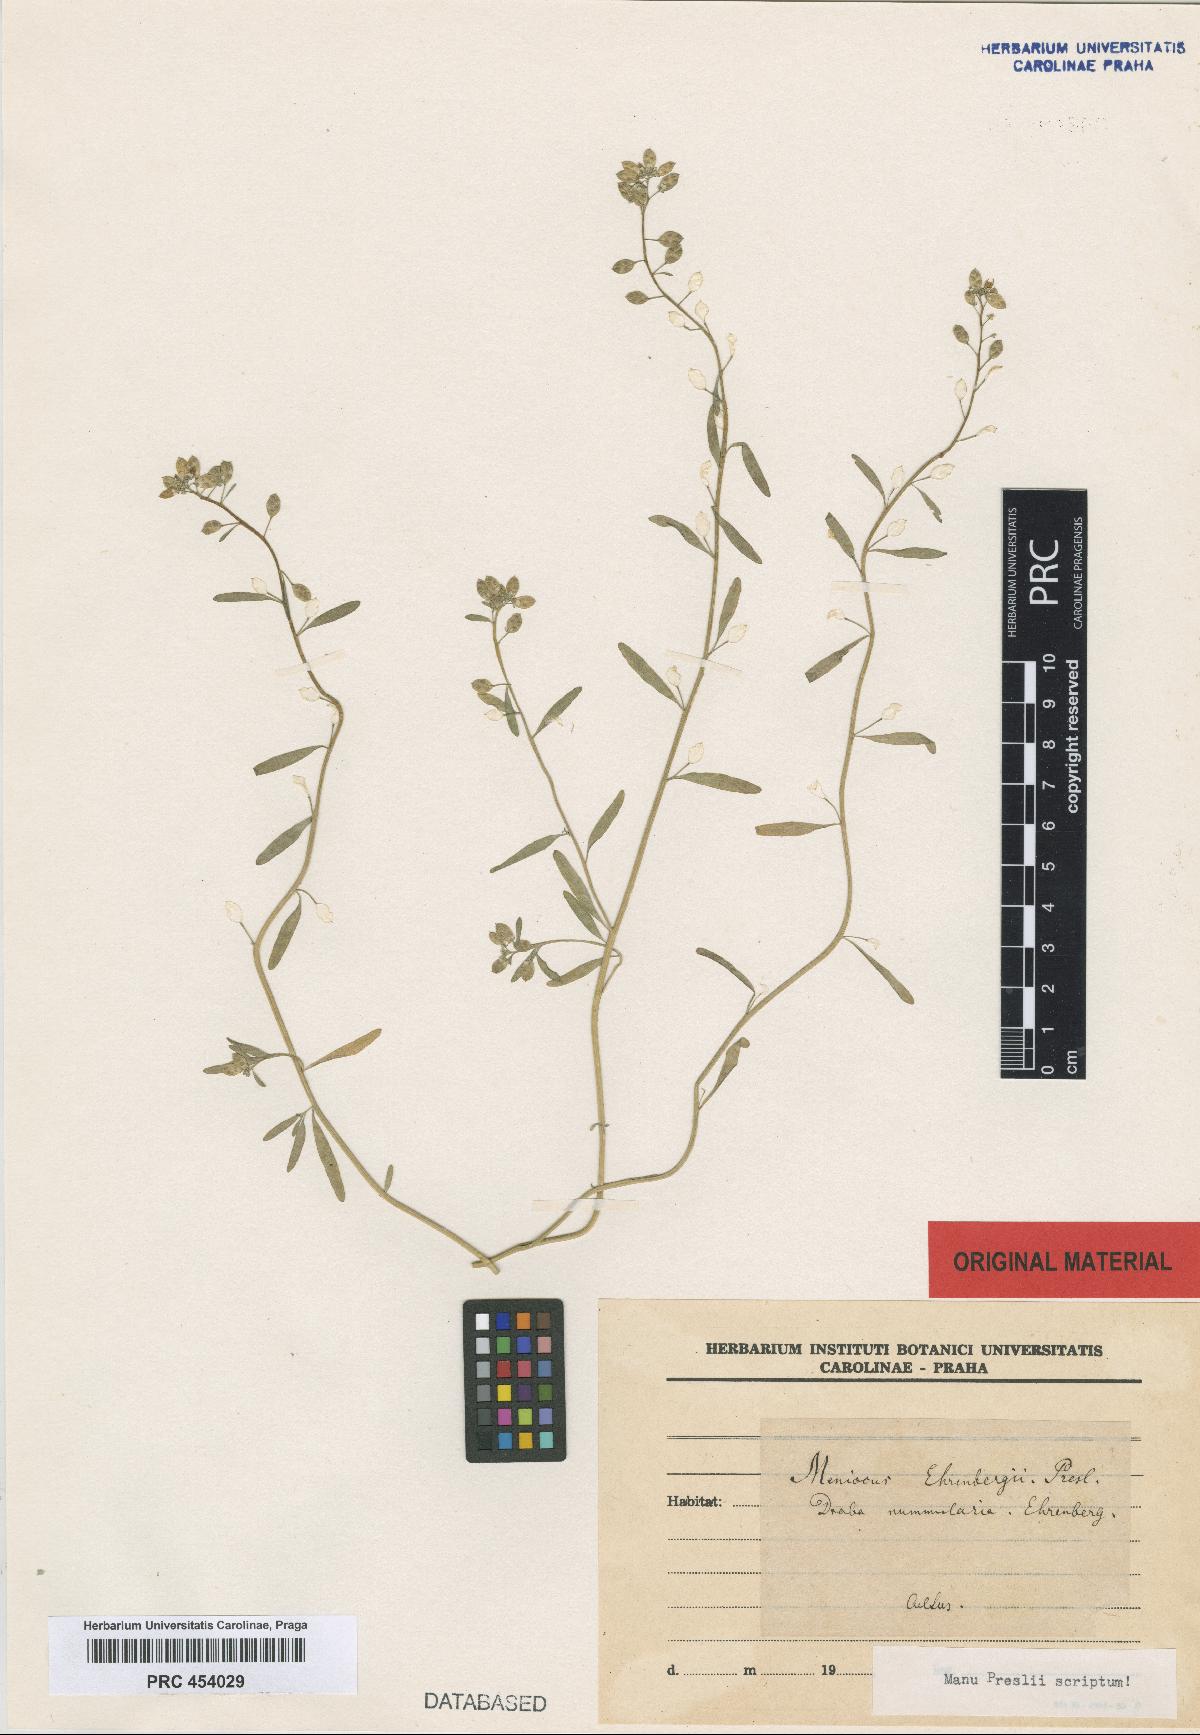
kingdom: Plantae
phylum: Tracheophyta
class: Magnoliopsida
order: Brassicales
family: Brassicaceae
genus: Lobularia
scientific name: Lobularia libyca
